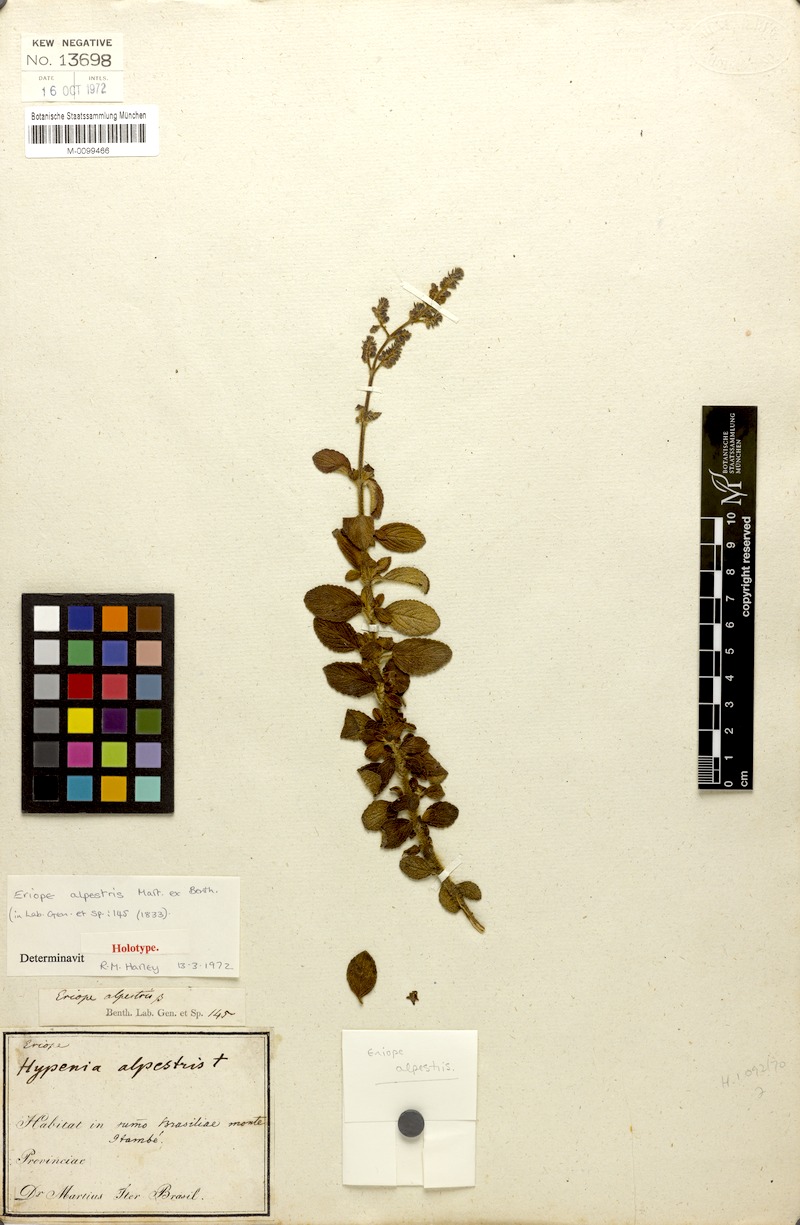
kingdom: Plantae
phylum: Tracheophyta
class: Magnoliopsida
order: Lamiales
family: Lamiaceae
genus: Eriope
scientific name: Eriope alpestris
